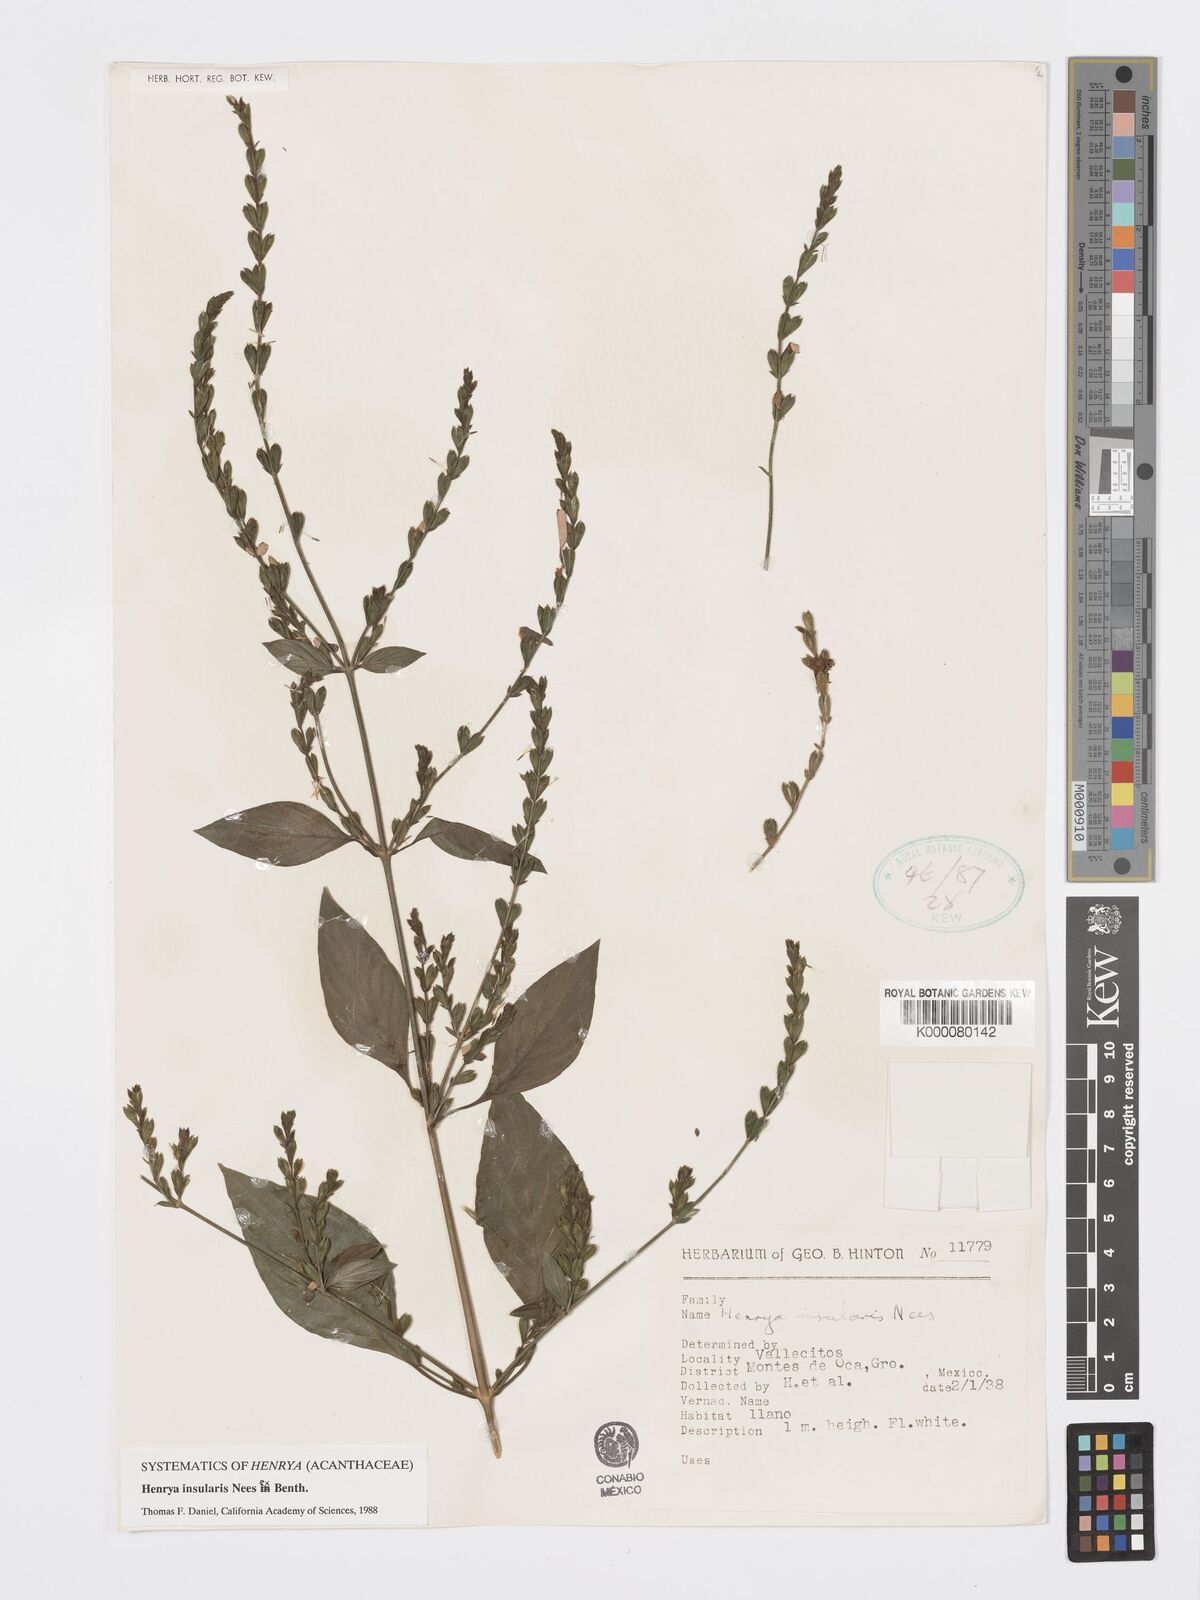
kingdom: Plantae
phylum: Tracheophyta
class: Magnoliopsida
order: Lamiales
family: Acanthaceae
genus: Henrya
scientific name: Henrya
